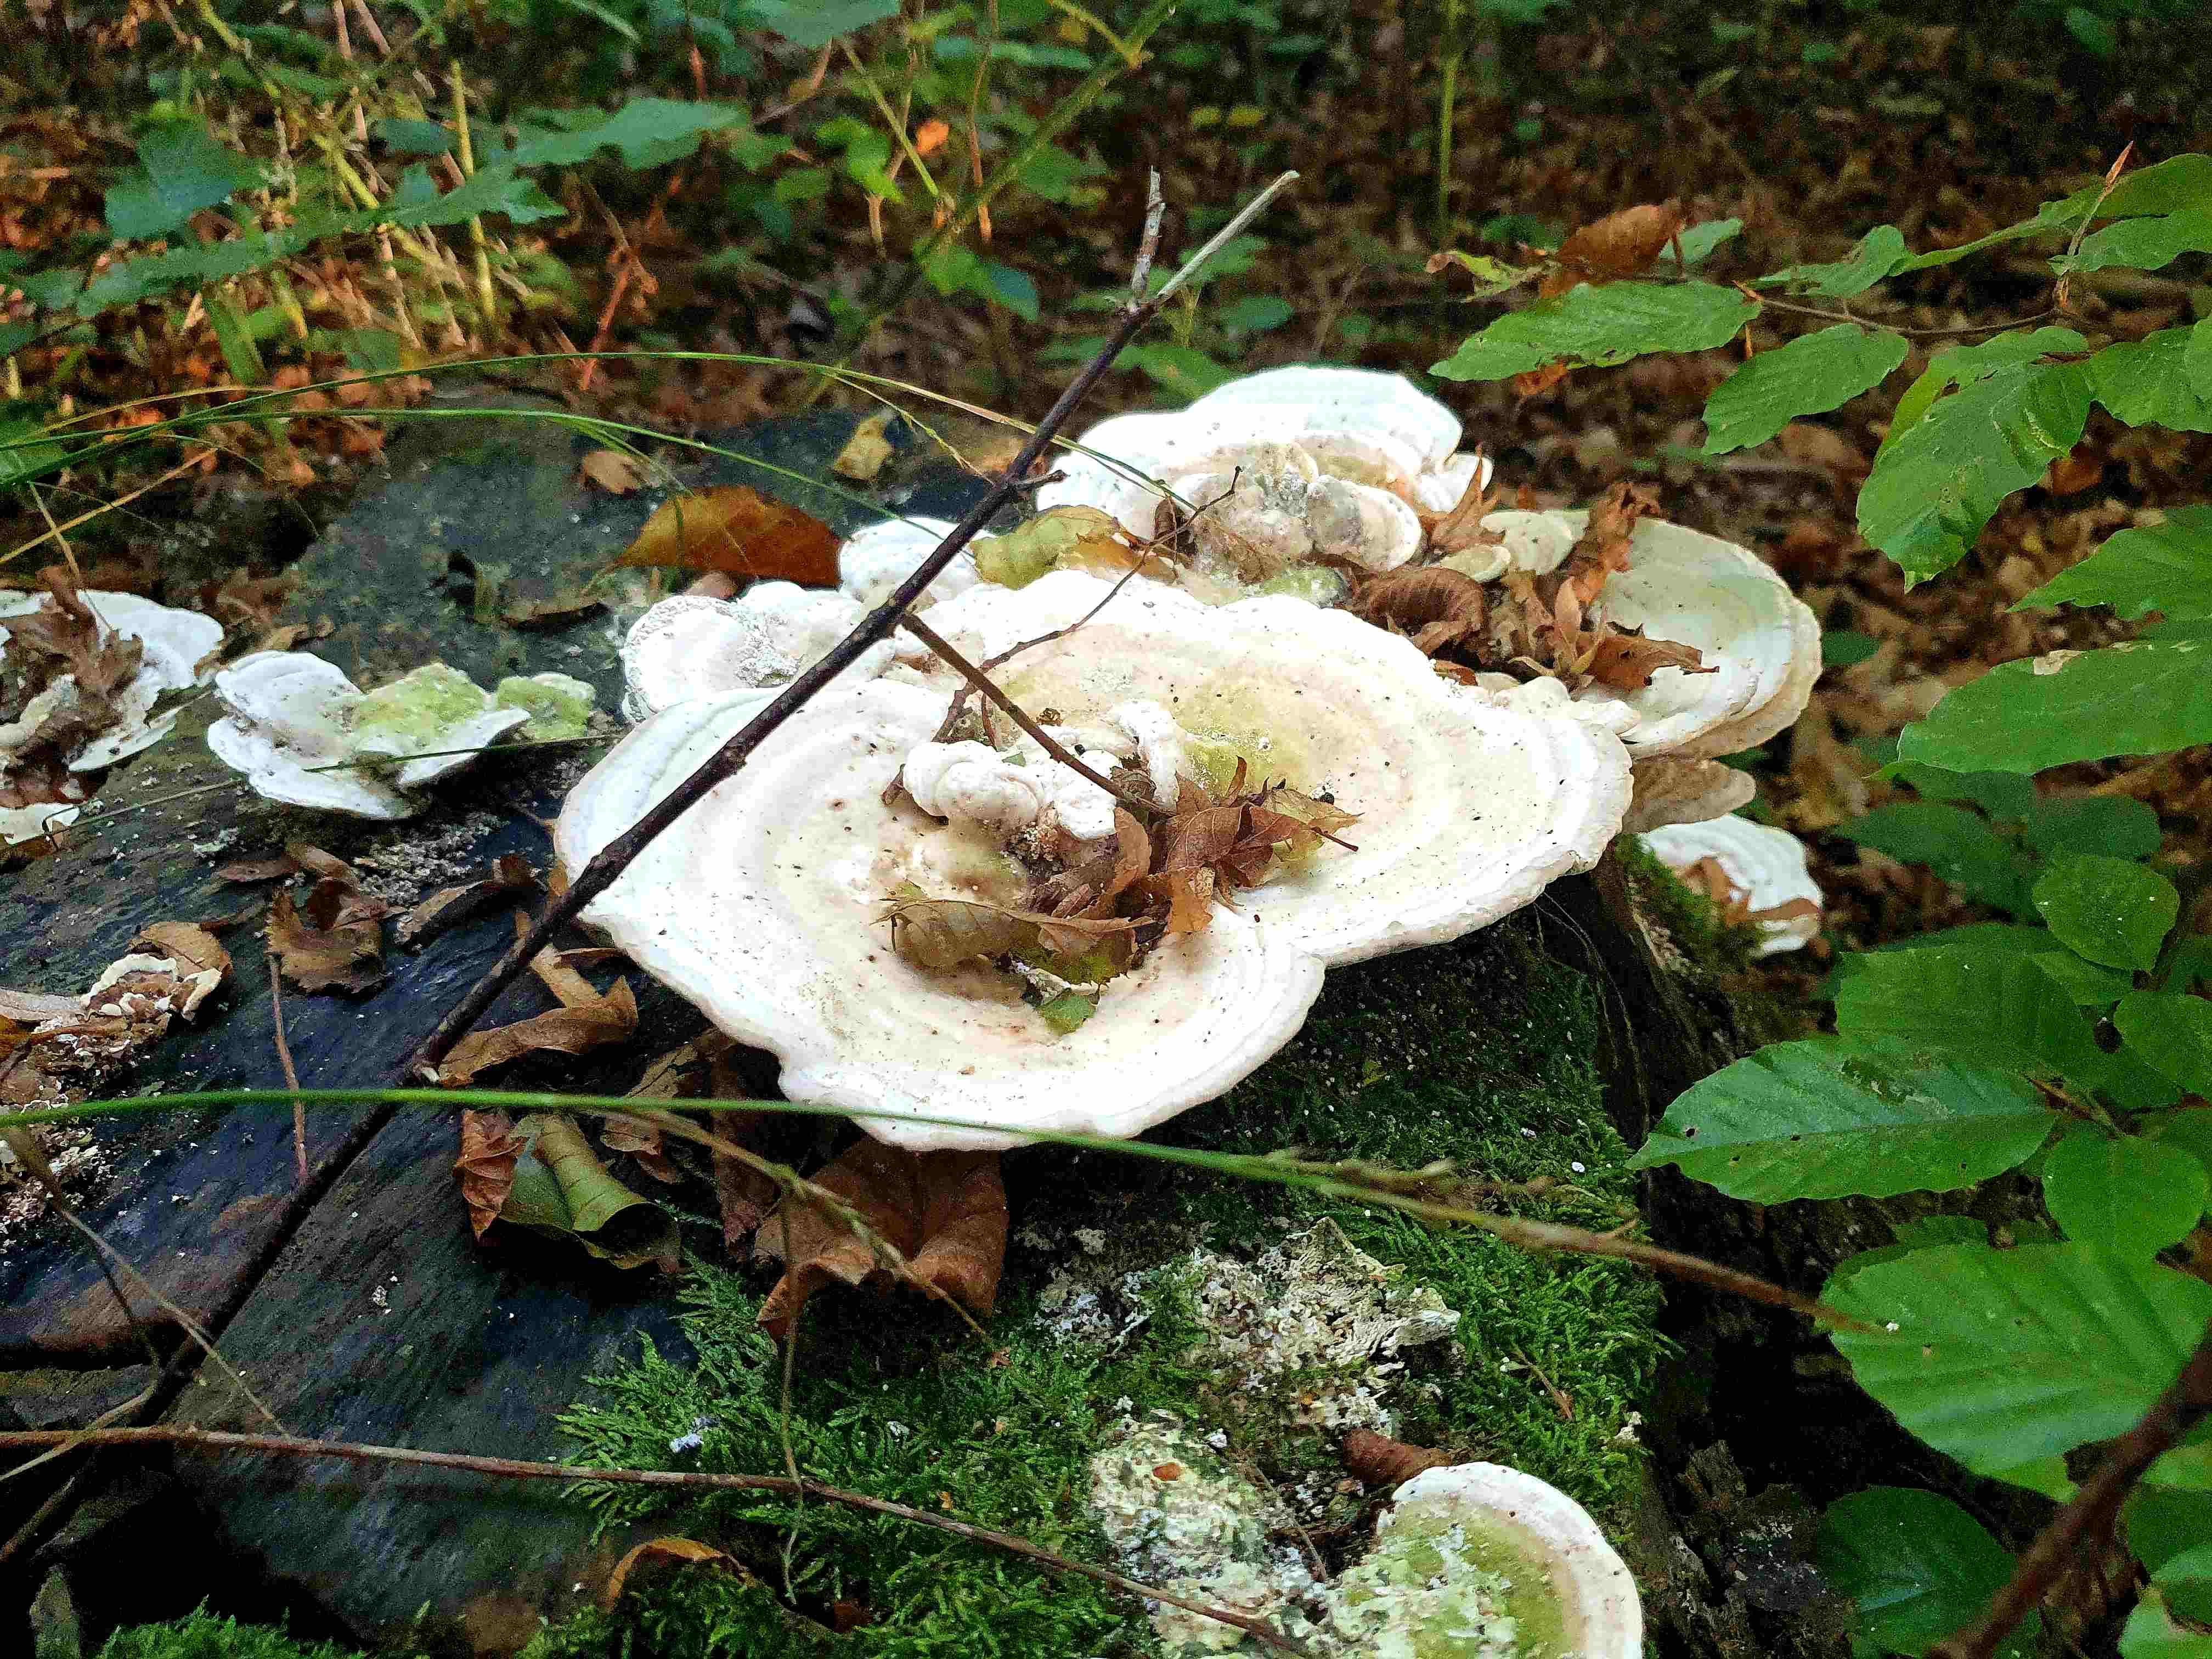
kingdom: Fungi
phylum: Basidiomycota
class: Agaricomycetes
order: Polyporales
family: Polyporaceae
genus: Trametes
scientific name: Trametes gibbosa
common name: puklet læderporesvamp
